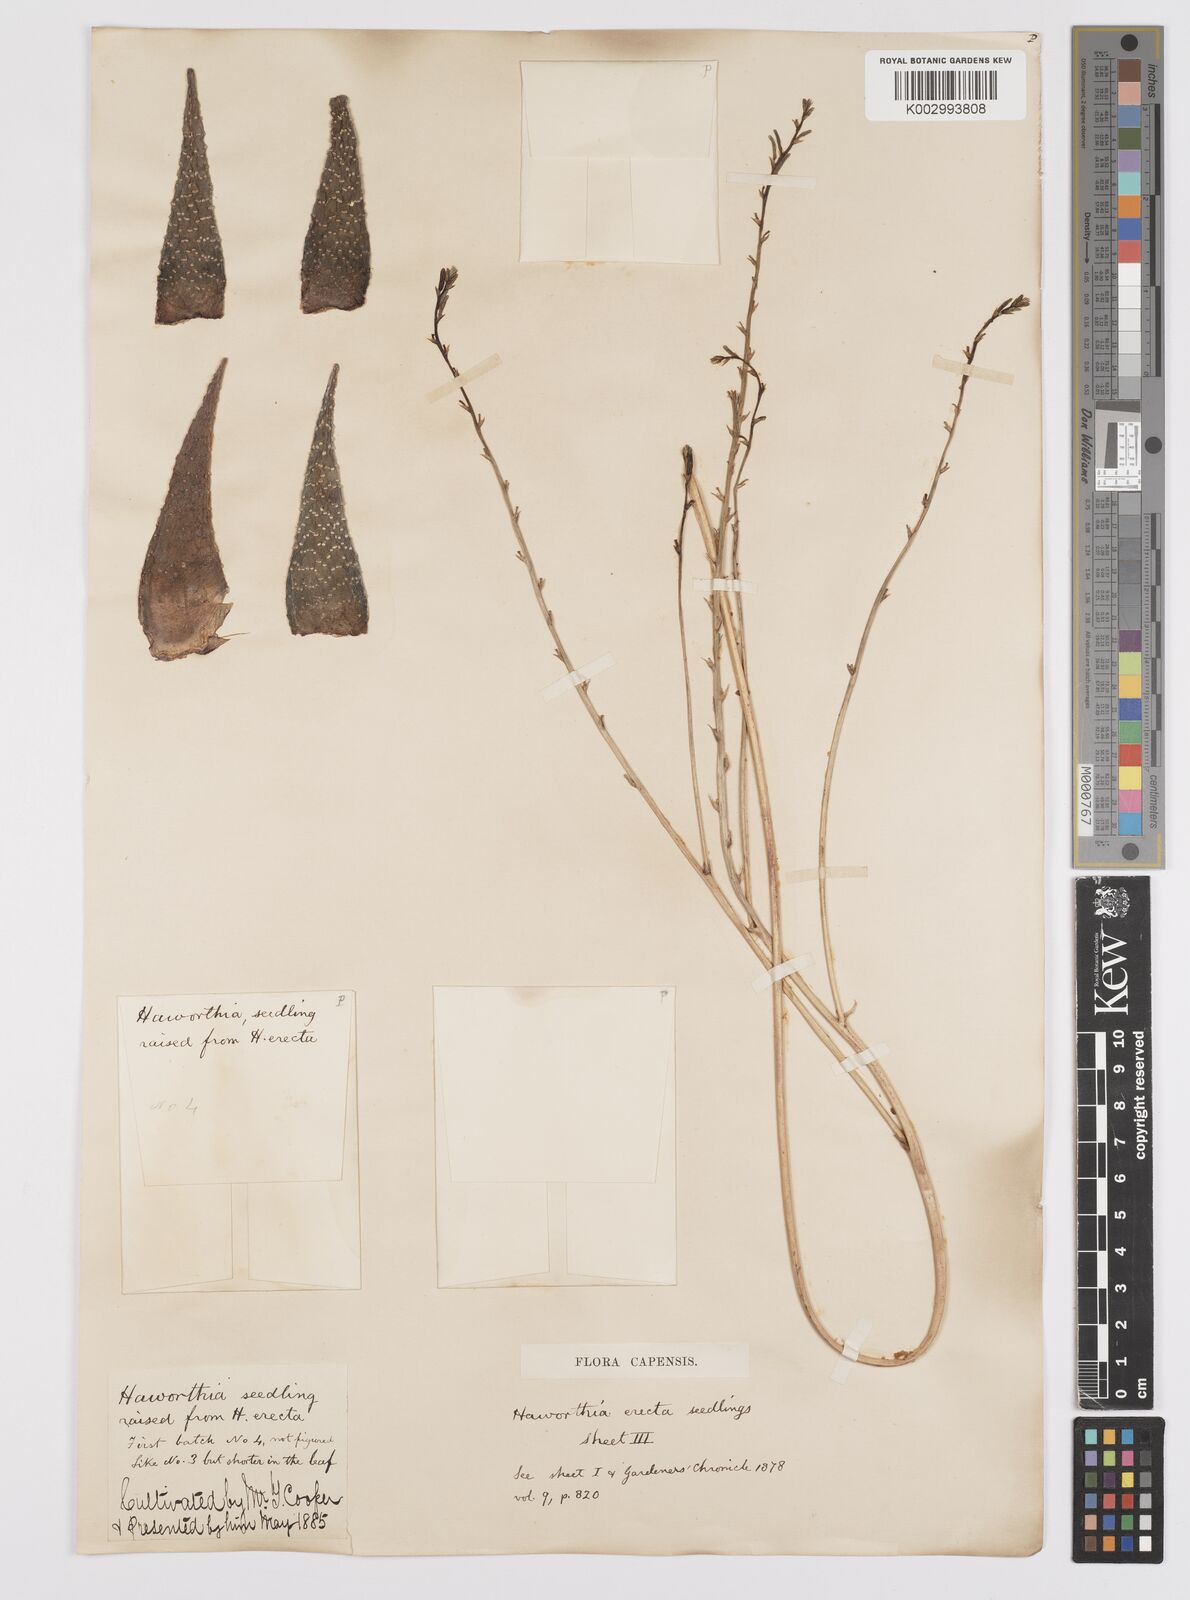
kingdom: Plantae
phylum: Tracheophyta
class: Liliopsida
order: Asparagales
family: Asphodelaceae
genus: Haworthia
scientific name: Haworthia
